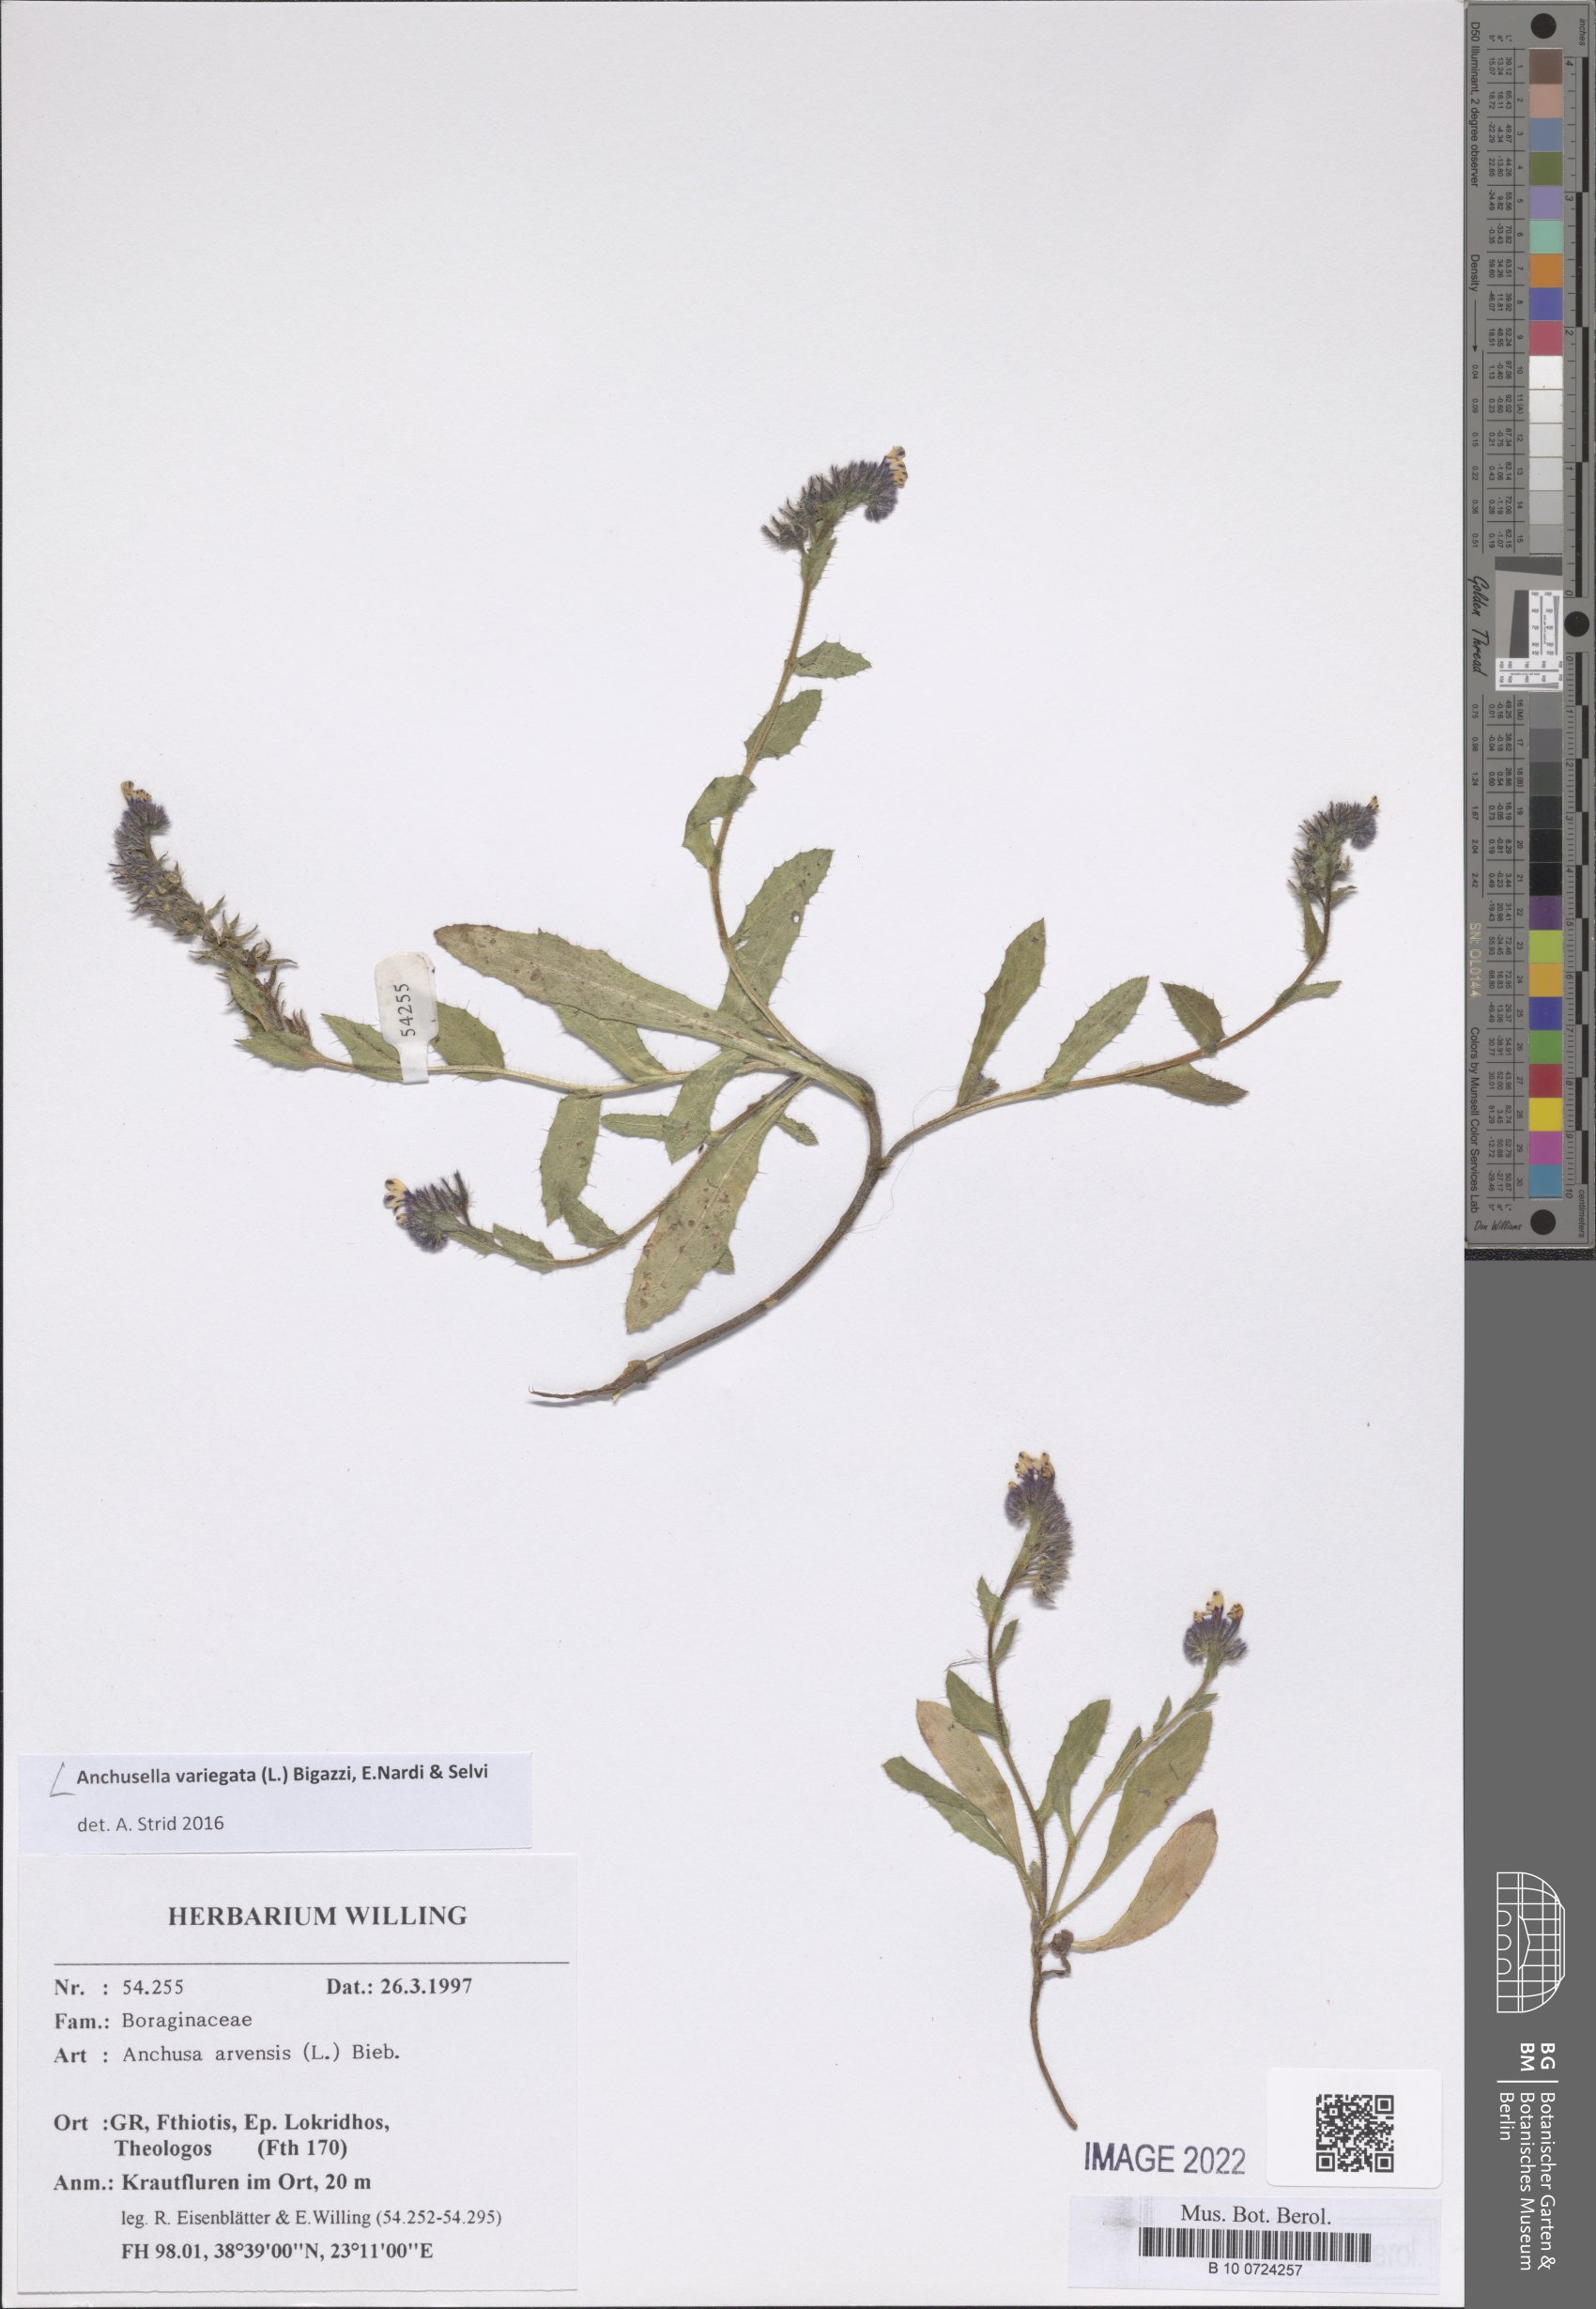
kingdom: Plantae
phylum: Tracheophyta
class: Magnoliopsida
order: Boraginales
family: Boraginaceae
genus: Anchusella
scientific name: Anchusella variegata
